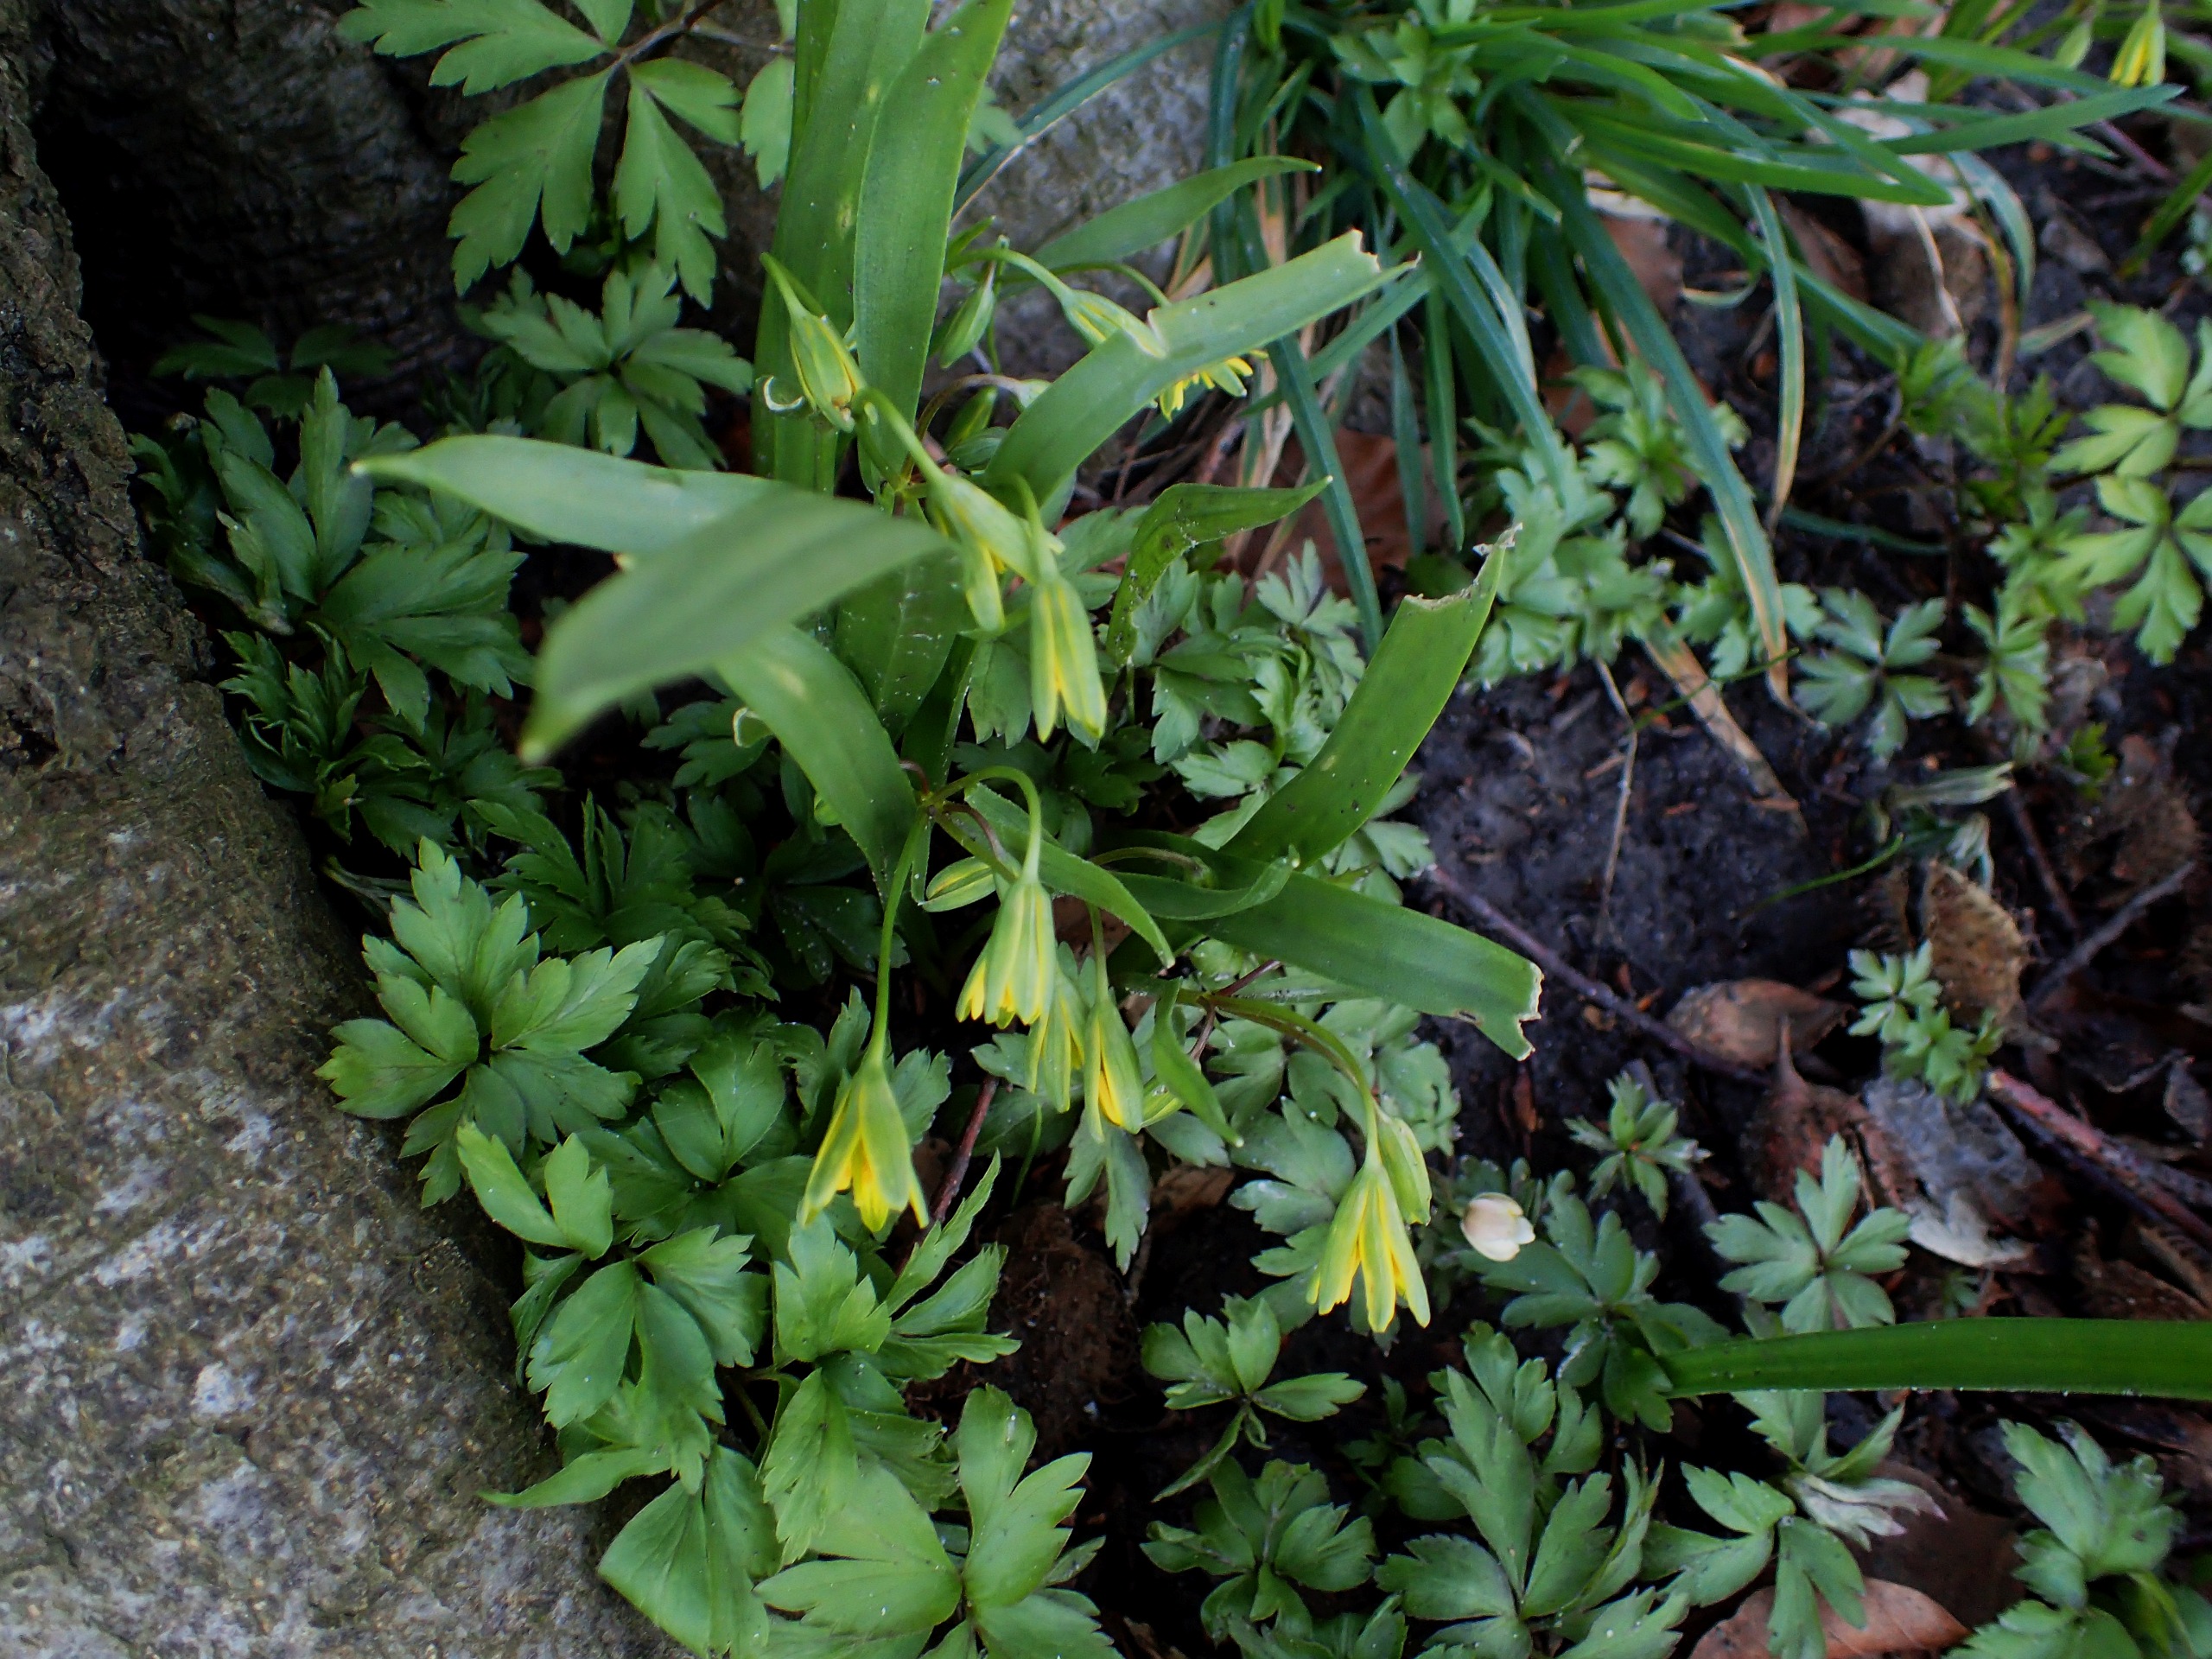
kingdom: Plantae
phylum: Tracheophyta
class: Liliopsida
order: Liliales
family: Liliaceae
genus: Gagea
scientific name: Gagea lutea
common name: Almindelig guldstjerne
